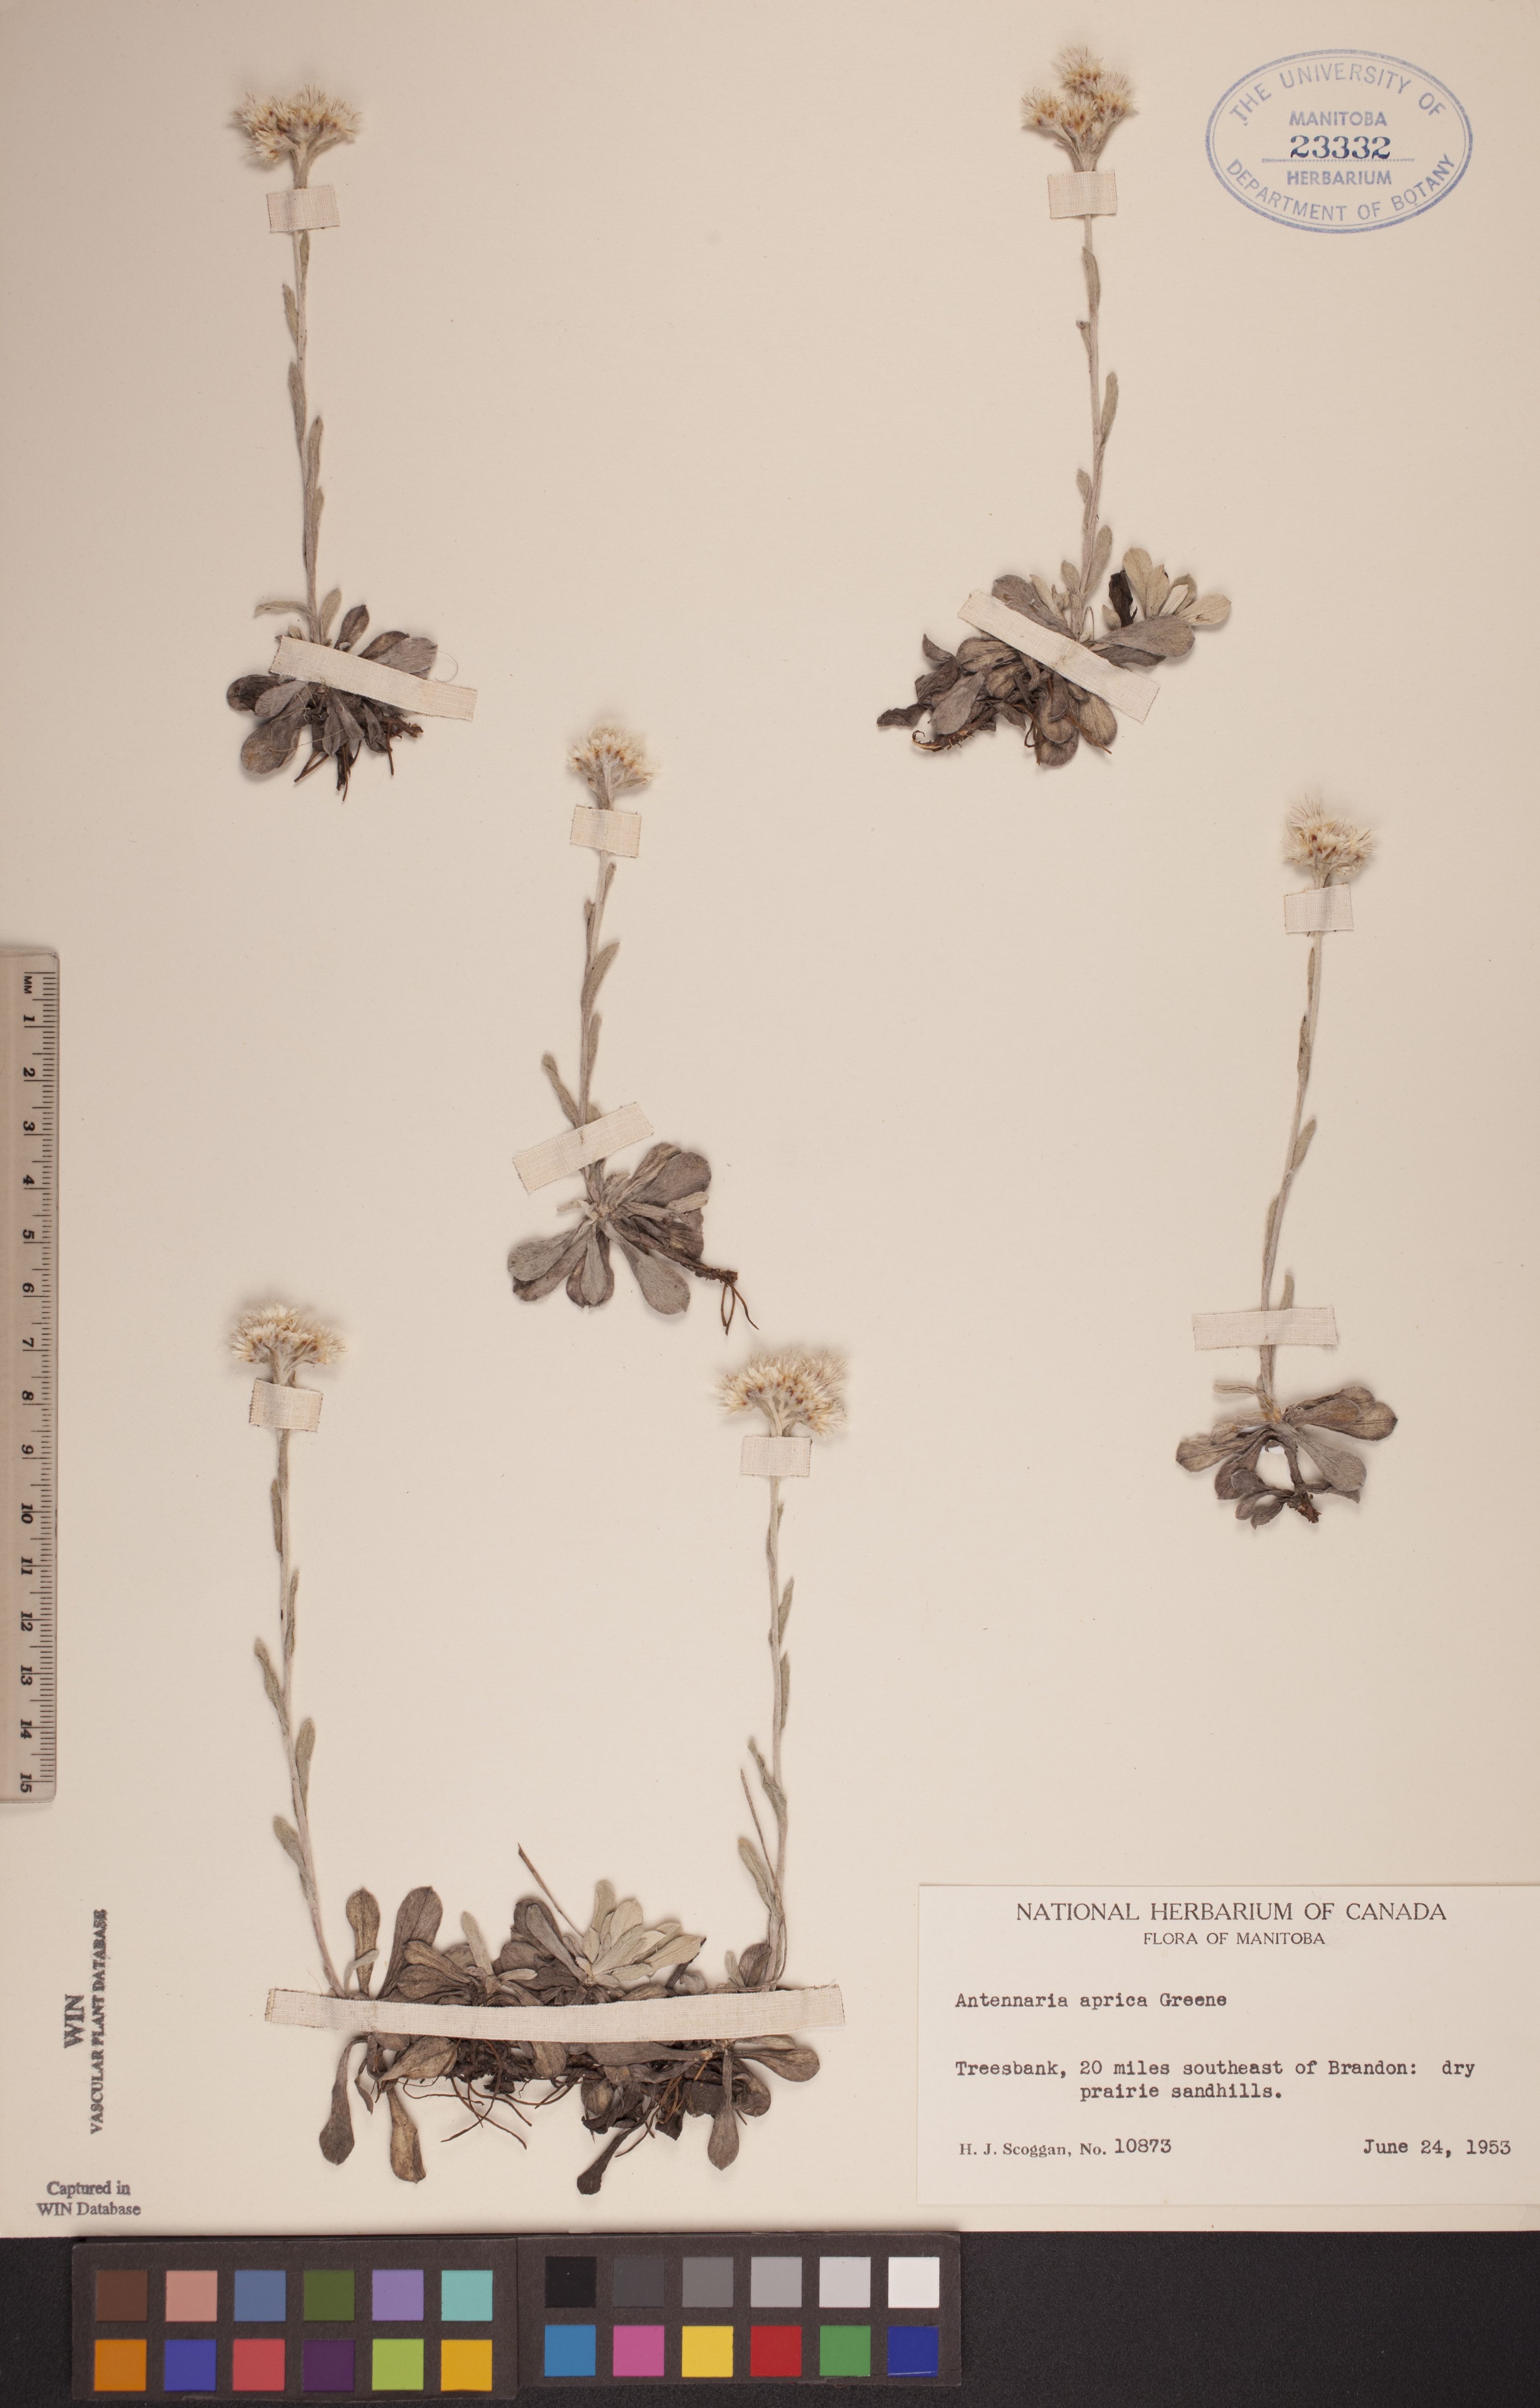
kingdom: Plantae
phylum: Tracheophyta
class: Magnoliopsida
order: Asterales
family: Asteraceae
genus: Antennaria
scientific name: Antennaria parvifolia
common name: Nuttall's pussytoes
